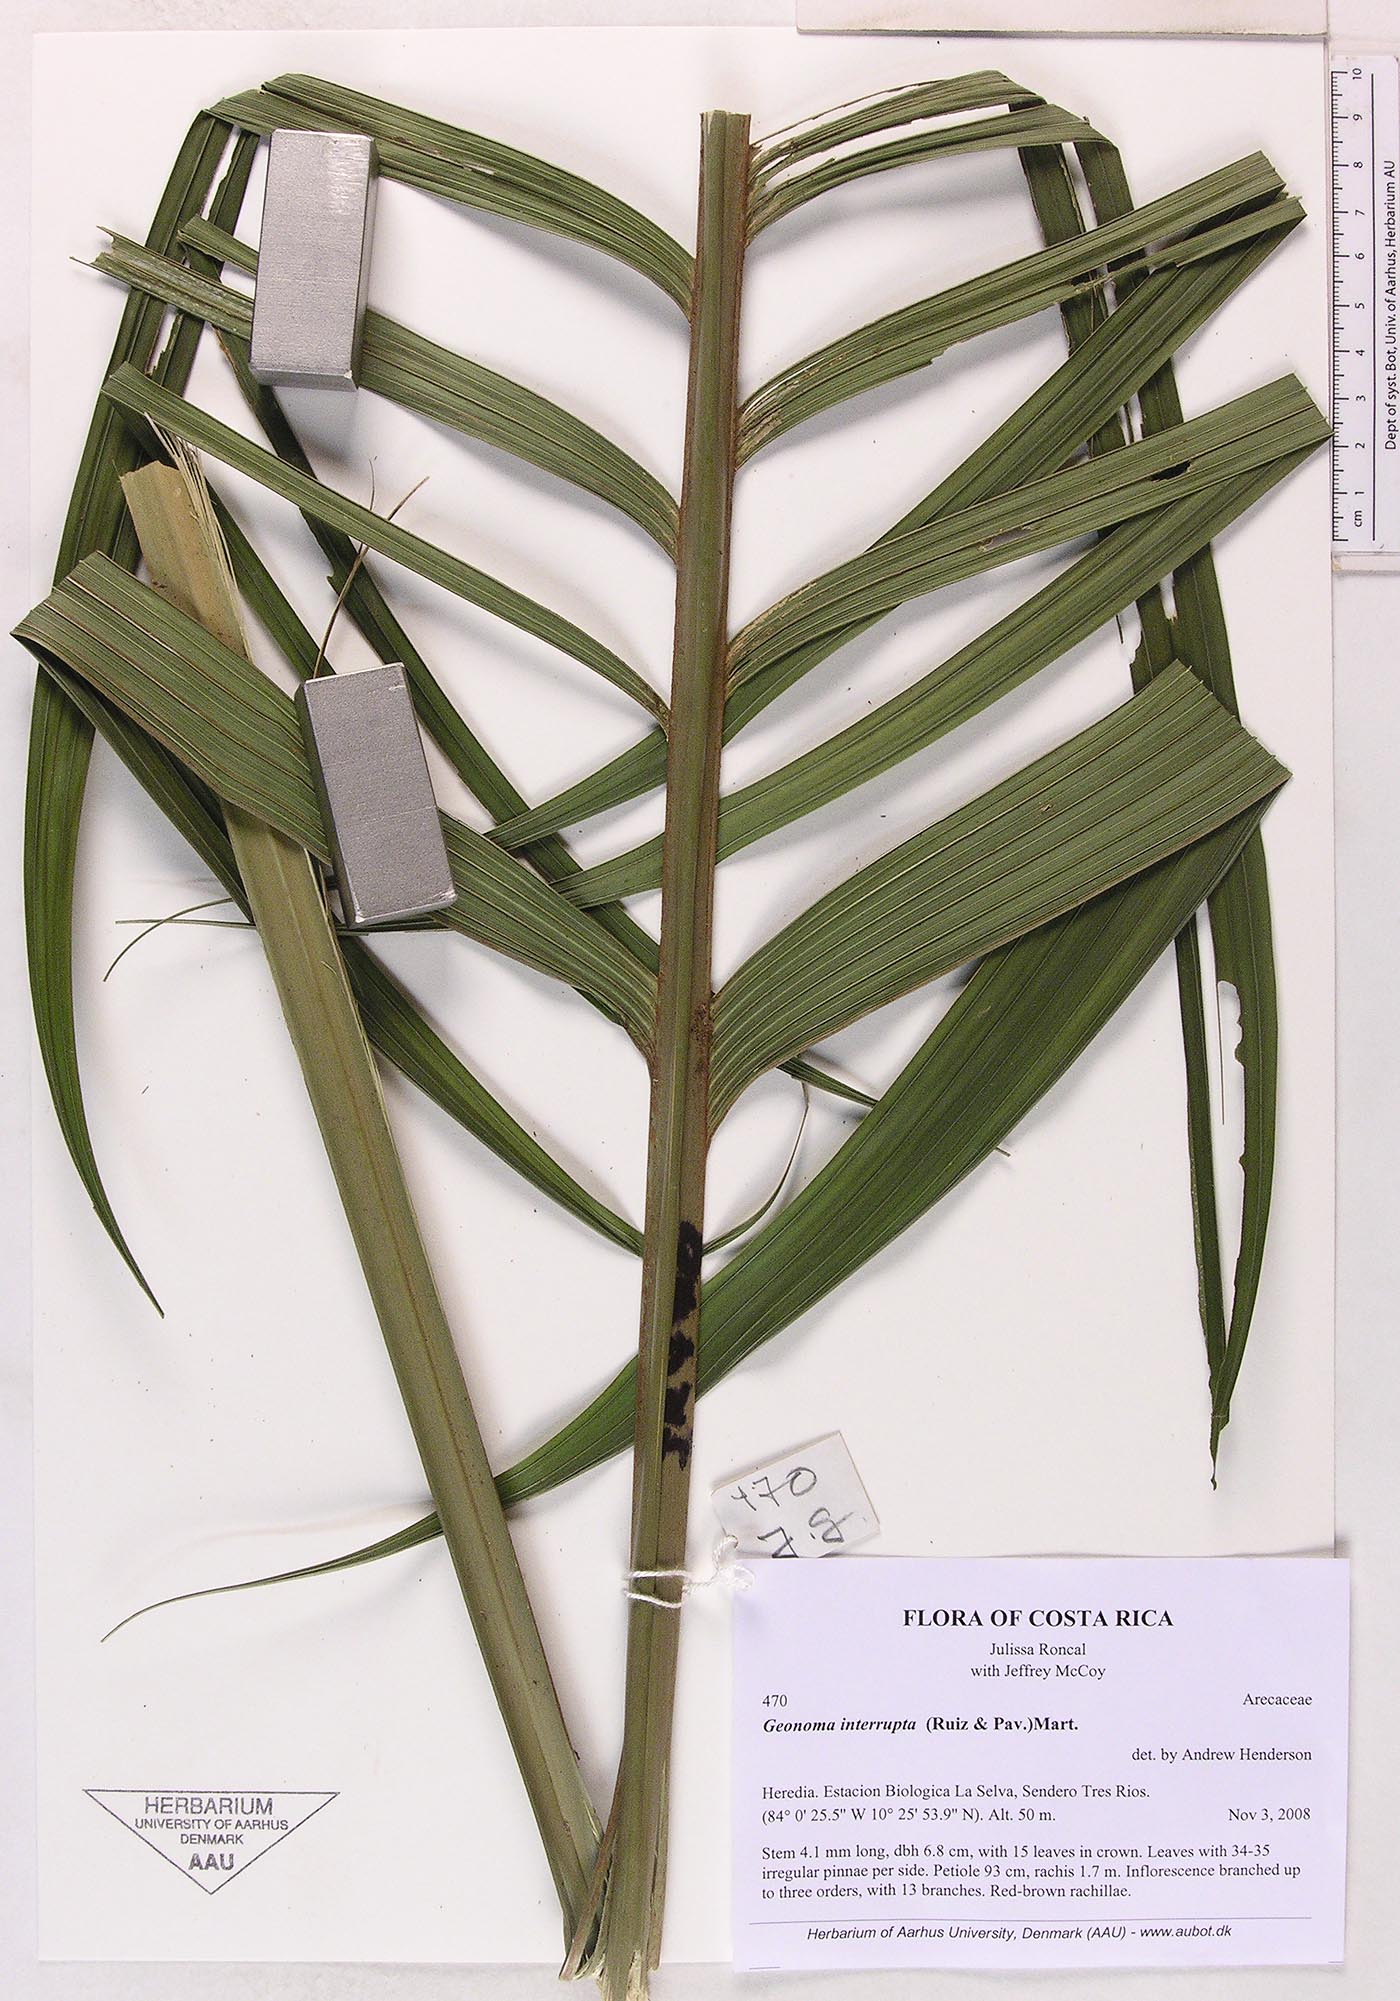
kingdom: Plantae
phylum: Tracheophyta
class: Liliopsida
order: Arecales
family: Arecaceae
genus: Geonoma
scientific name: Geonoma interrupta
